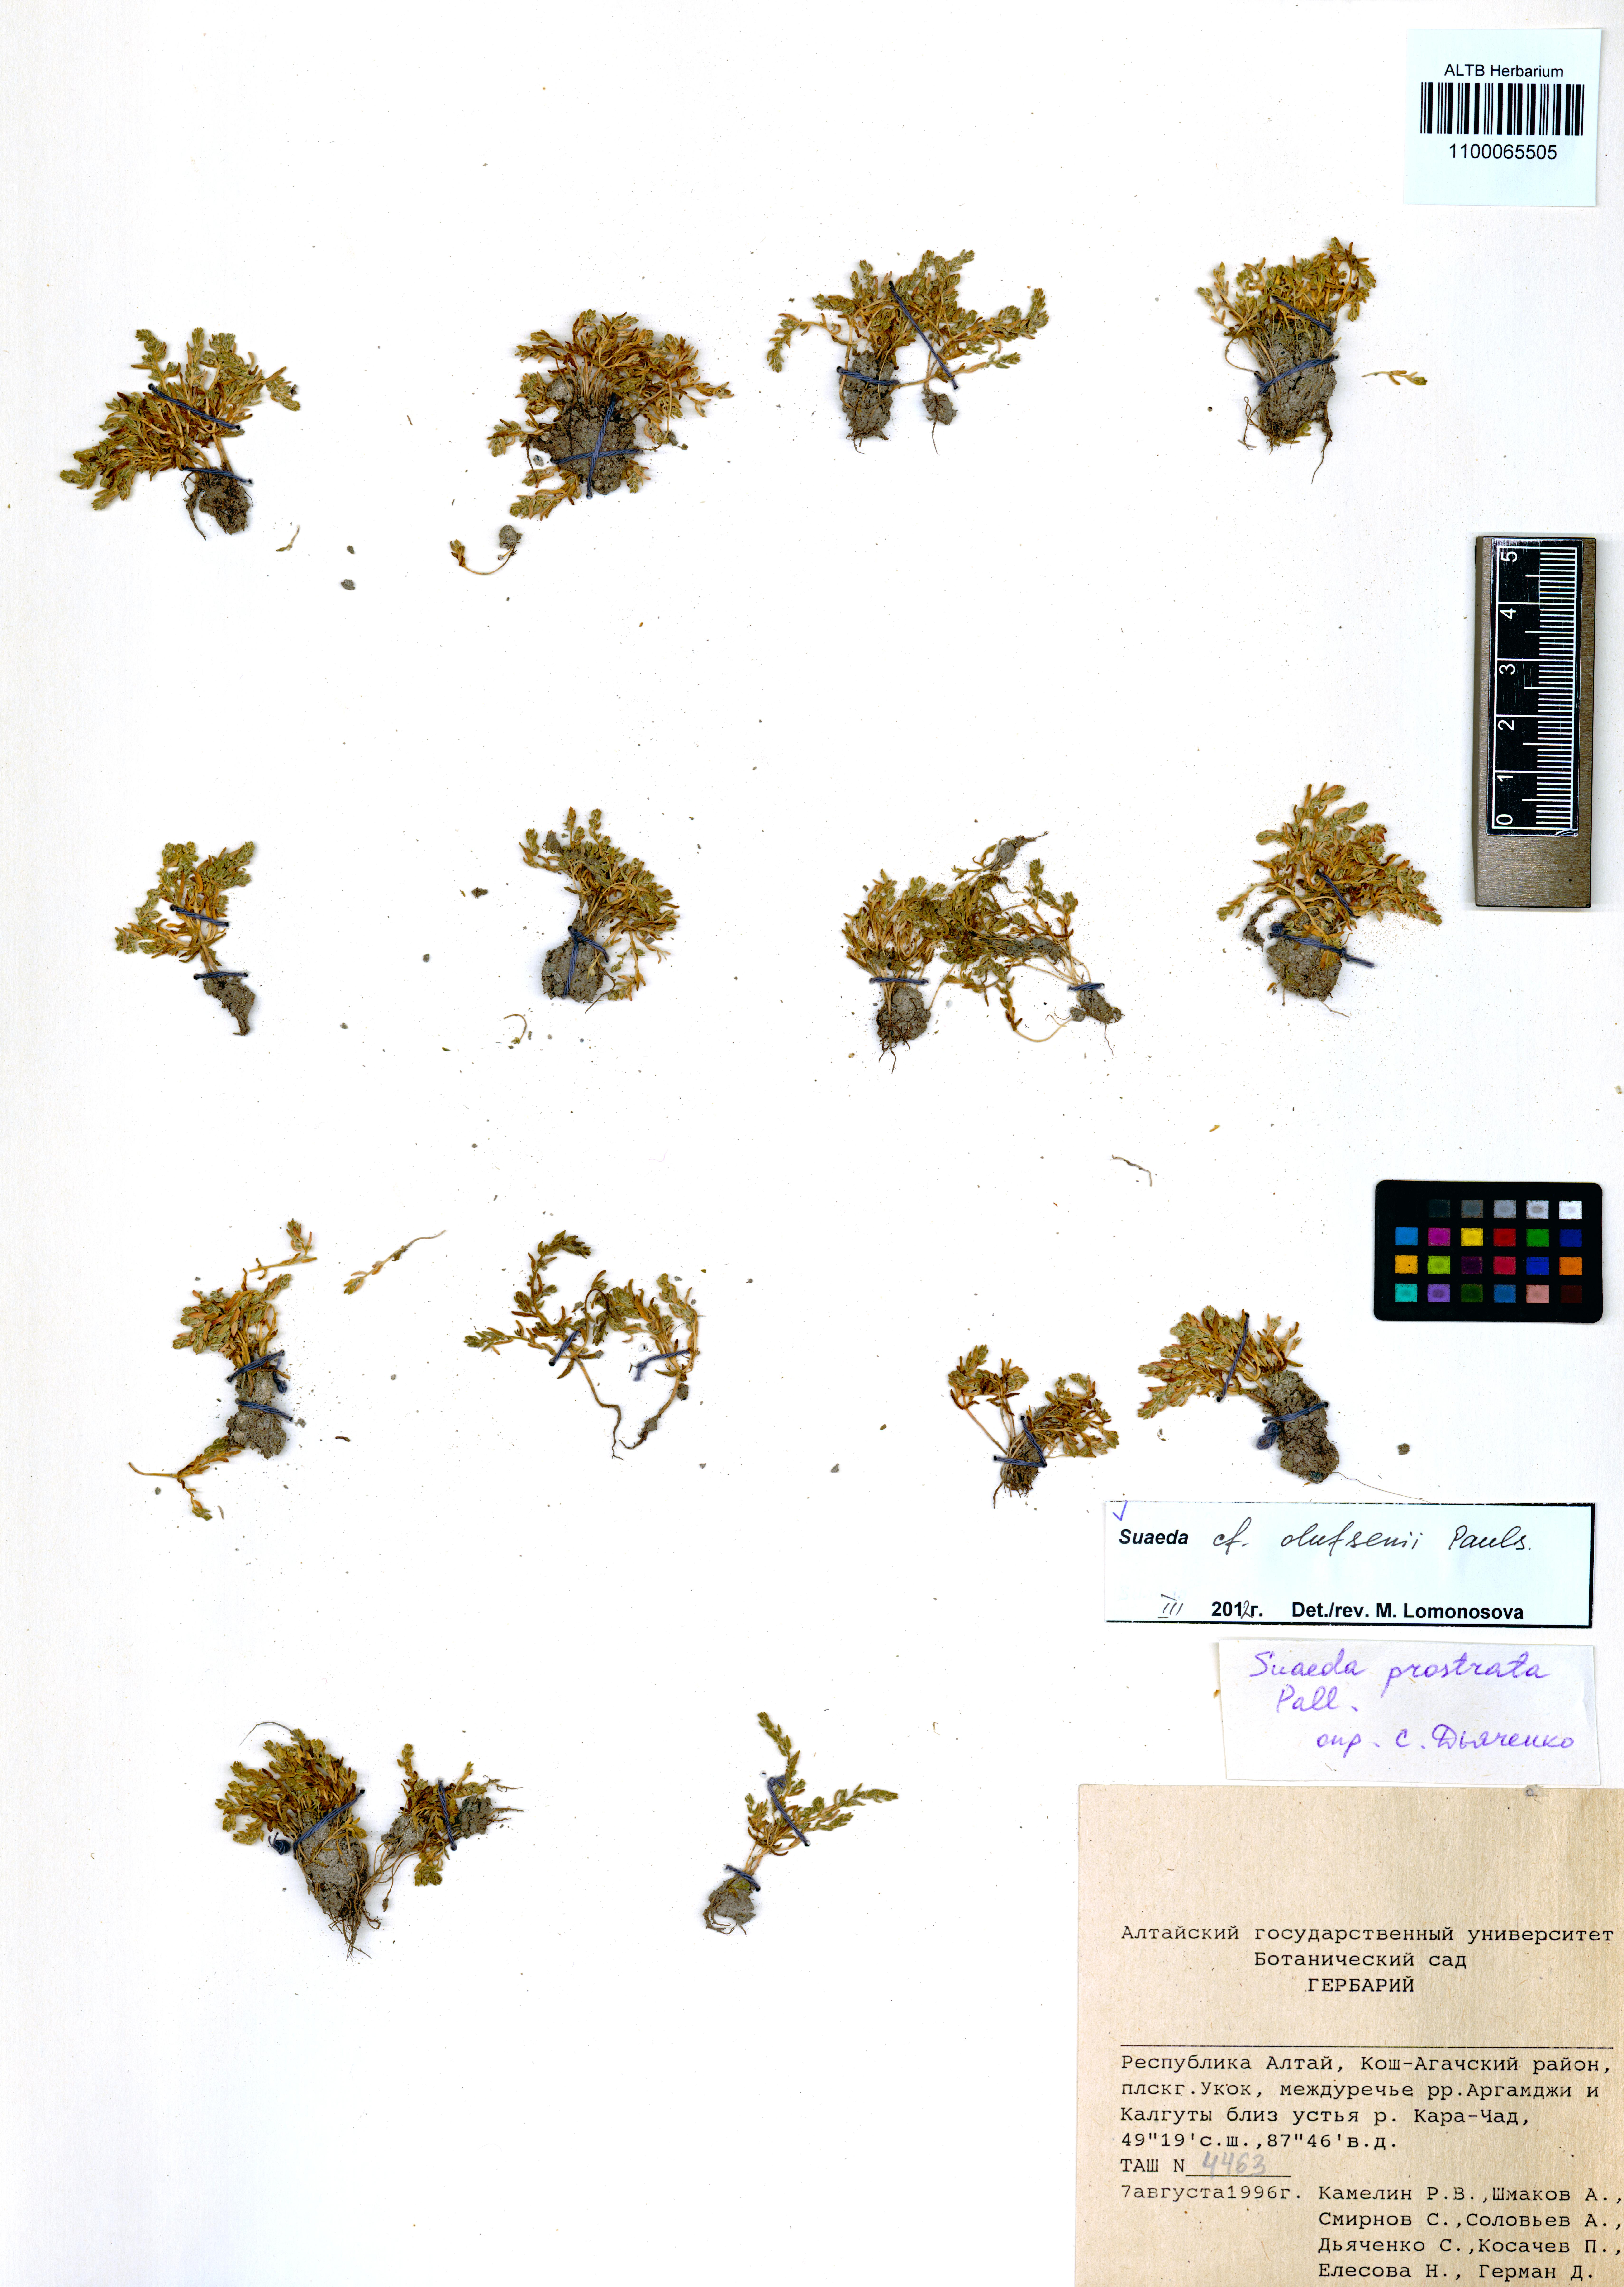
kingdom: Plantae
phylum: Tracheophyta
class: Magnoliopsida
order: Caryophyllales
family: Amaranthaceae
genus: Suaeda
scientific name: Suaeda olufsenii
